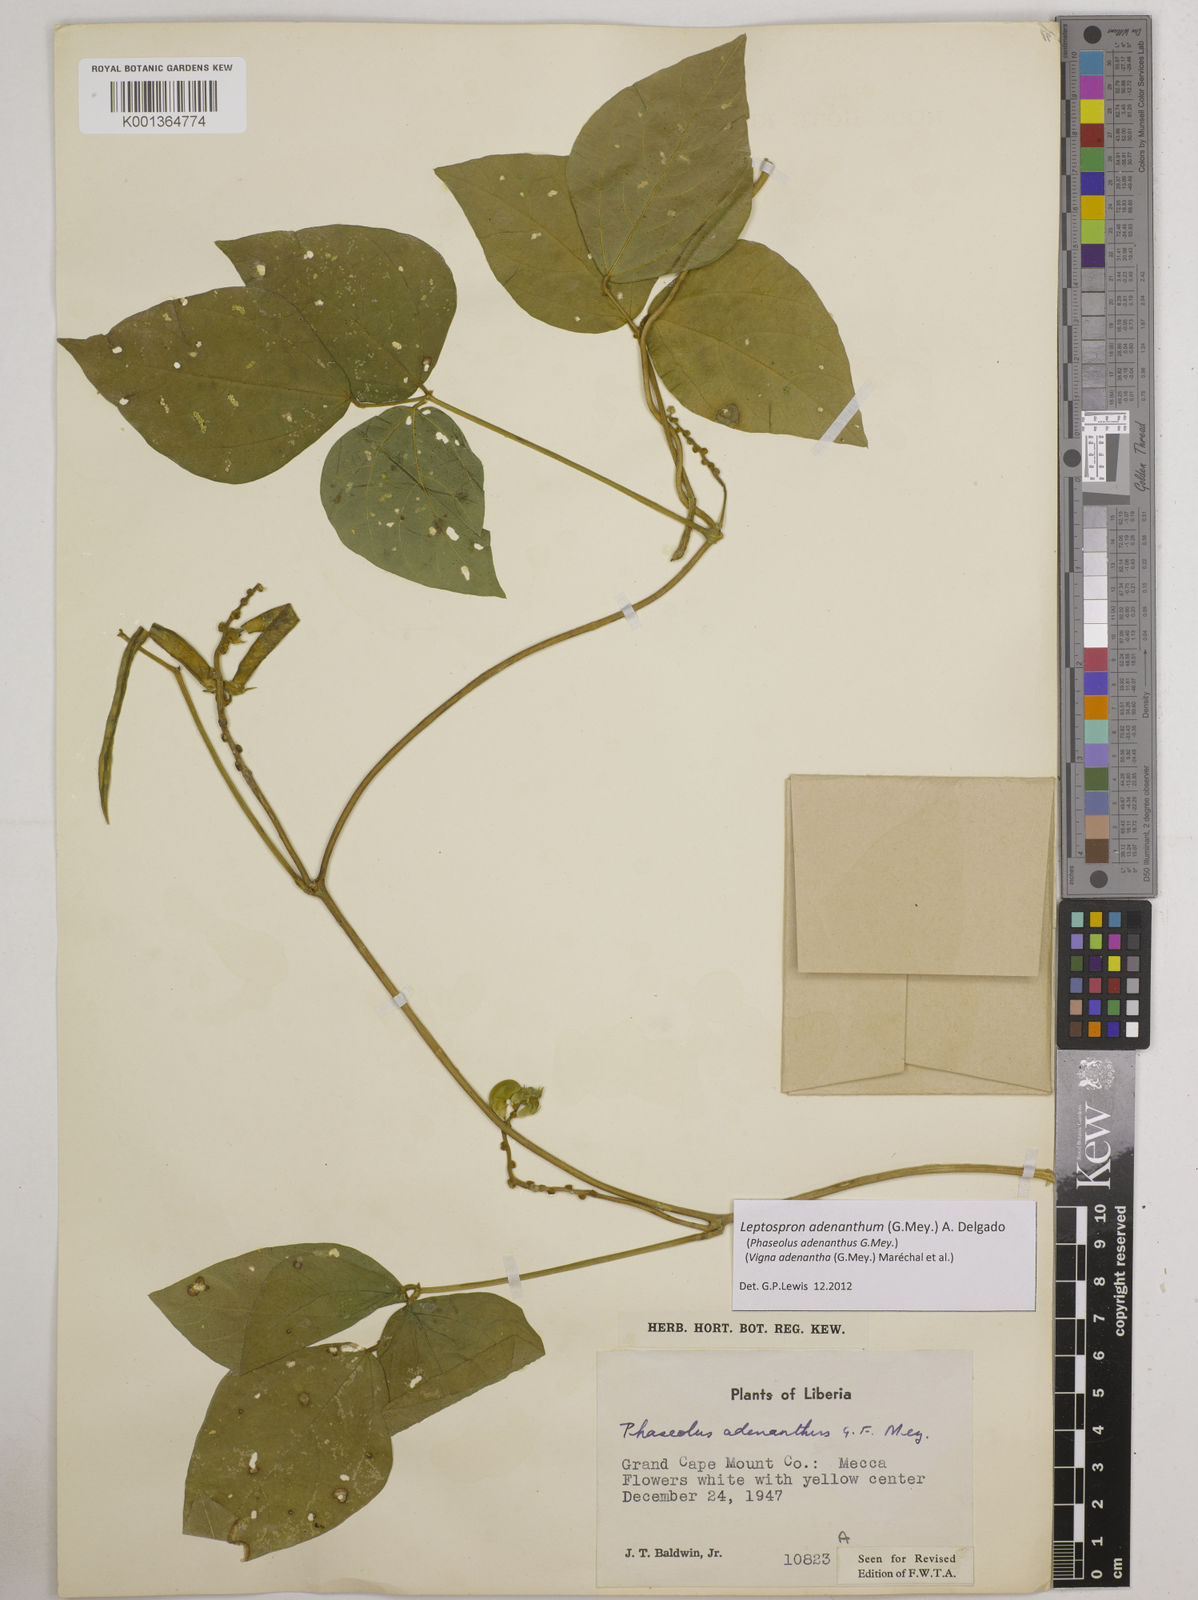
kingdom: Plantae
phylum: Tracheophyta
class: Magnoliopsida
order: Fabales
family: Fabaceae
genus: Leptospron
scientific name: Leptospron adenanthum
